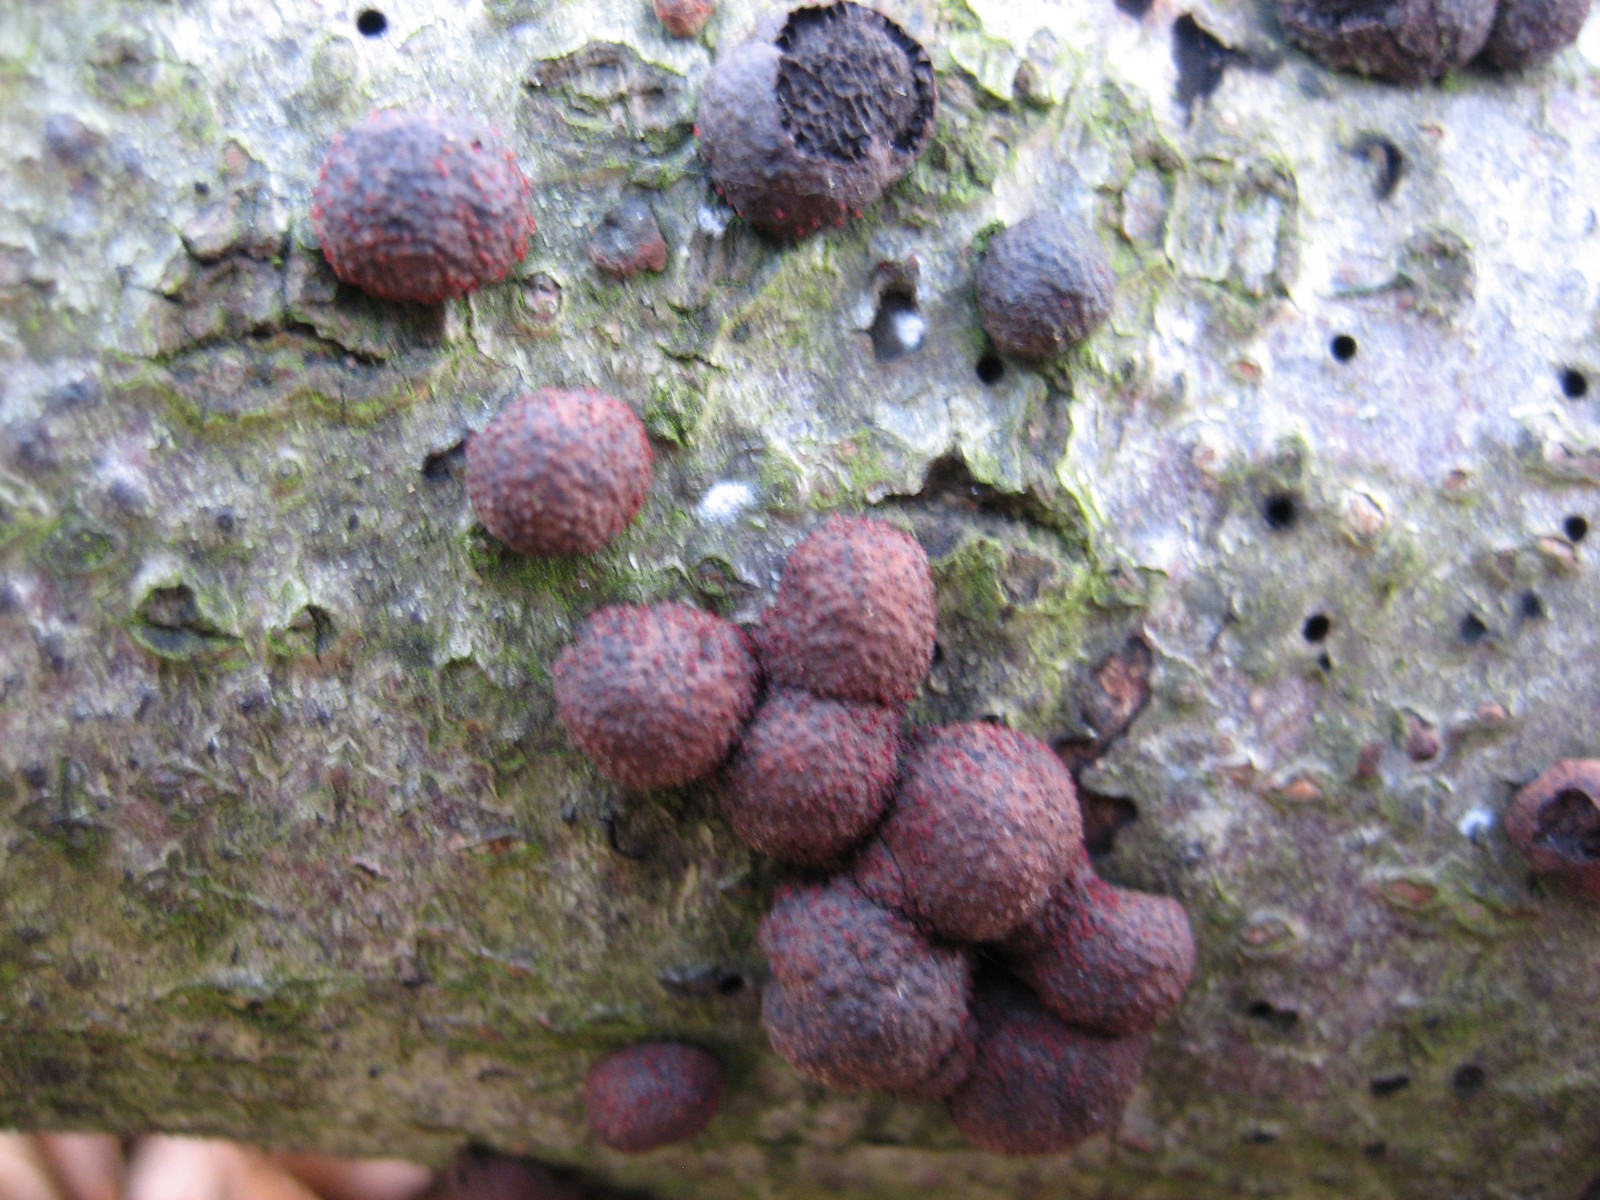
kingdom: Fungi
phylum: Ascomycota
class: Sordariomycetes
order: Hypocreales
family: Nectriaceae
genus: Cosmospora
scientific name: Cosmospora arxii
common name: kuljordbær-cinnobersvamp
